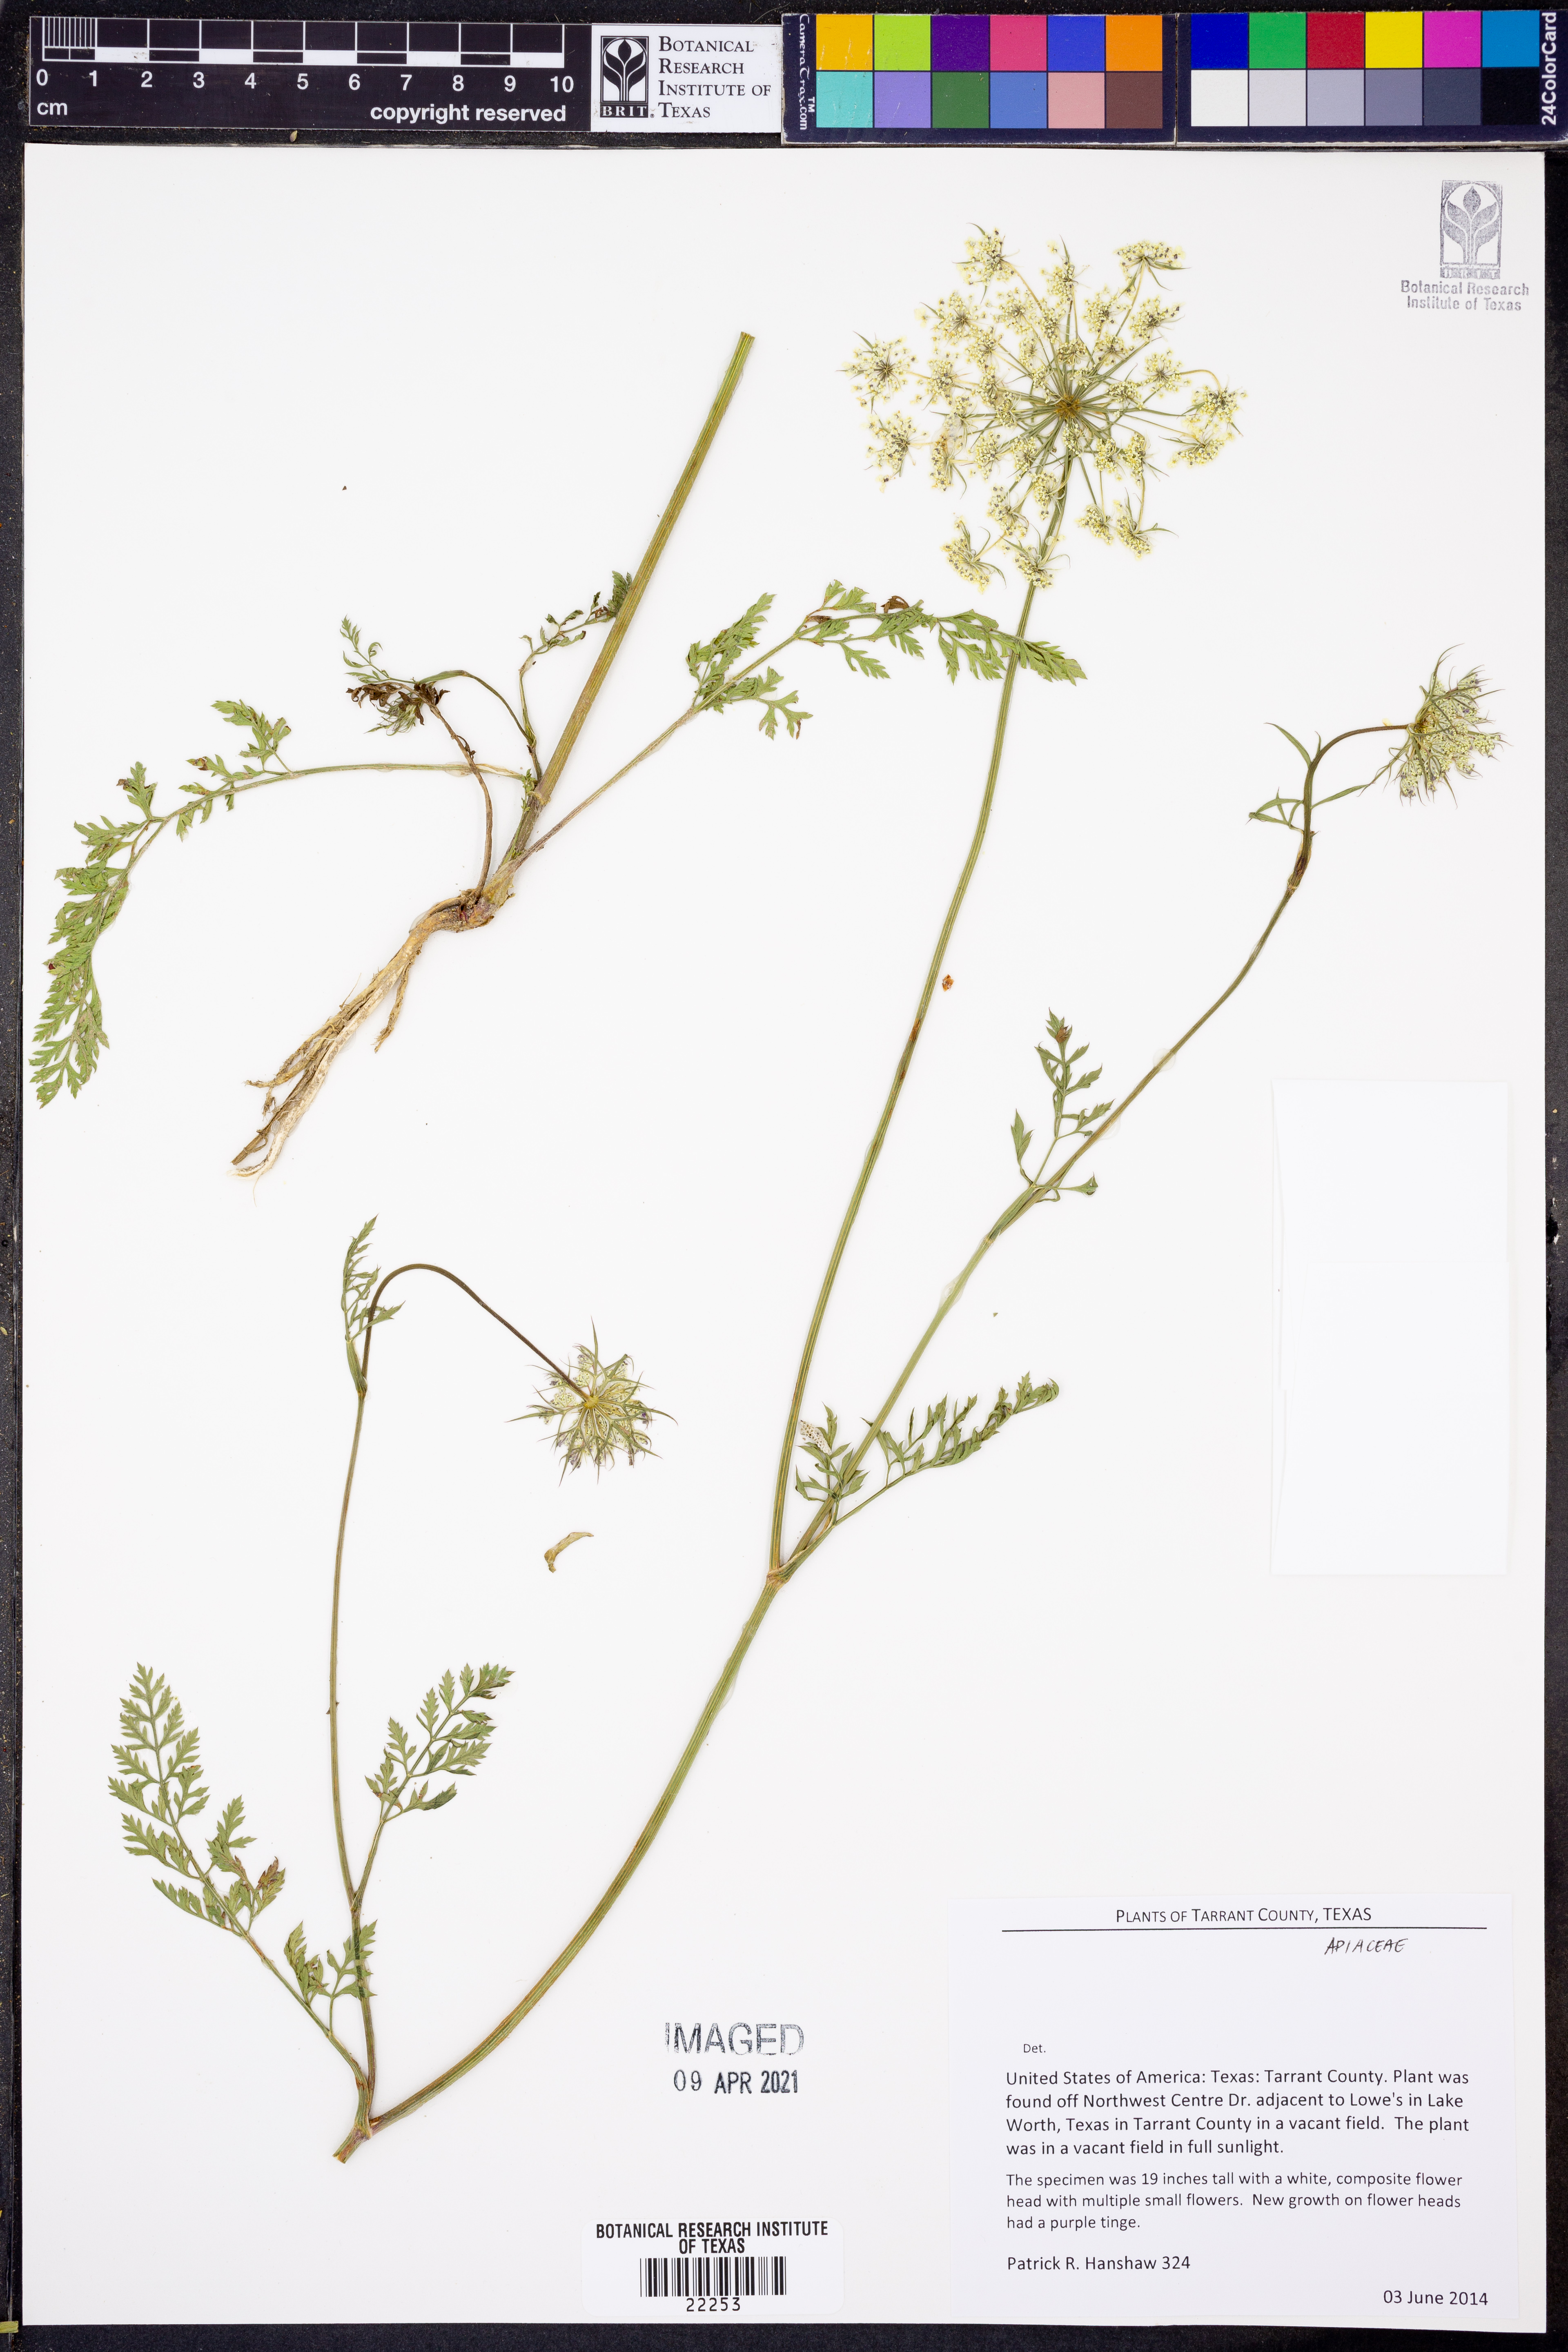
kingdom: Plantae
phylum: Tracheophyta
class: Magnoliopsida
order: Apiales
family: Apiaceae
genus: Daucus
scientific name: Daucus carota
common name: Wild carrot
